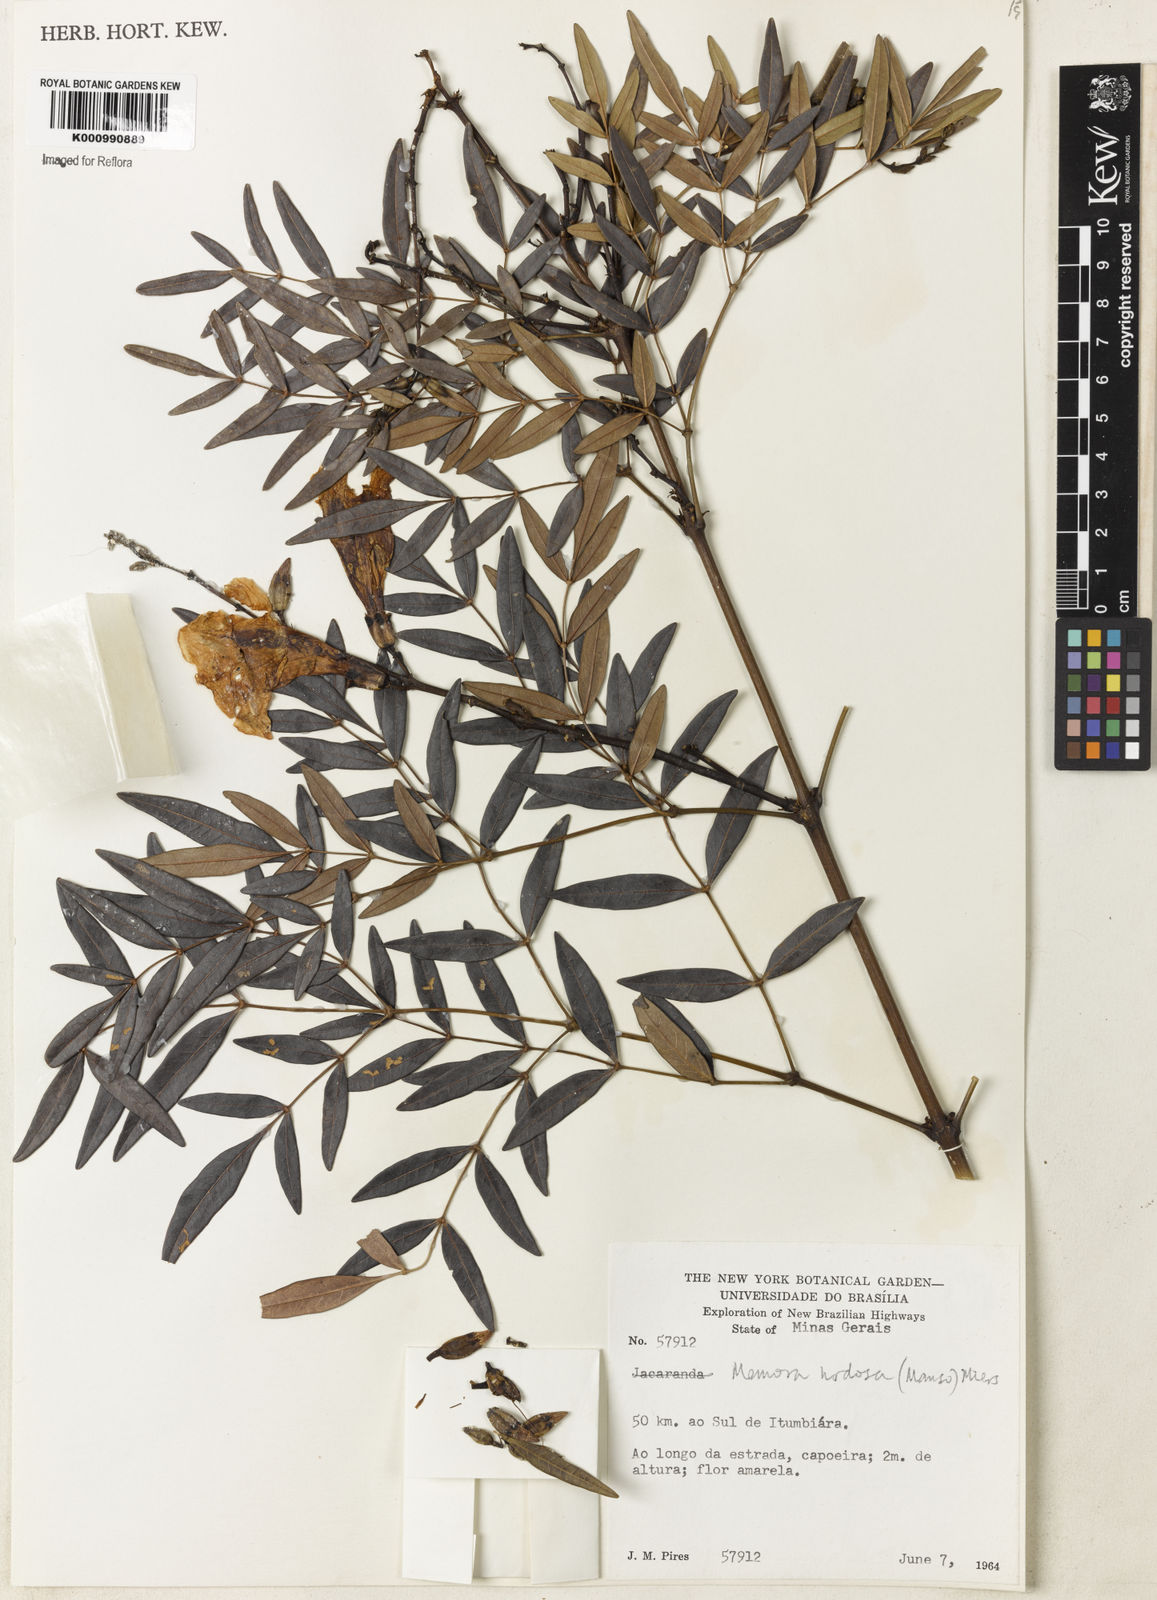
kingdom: Plantae
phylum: Tracheophyta
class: Magnoliopsida
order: Lamiales
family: Bignoniaceae
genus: Adenocalymma
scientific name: Adenocalymma nodosum
